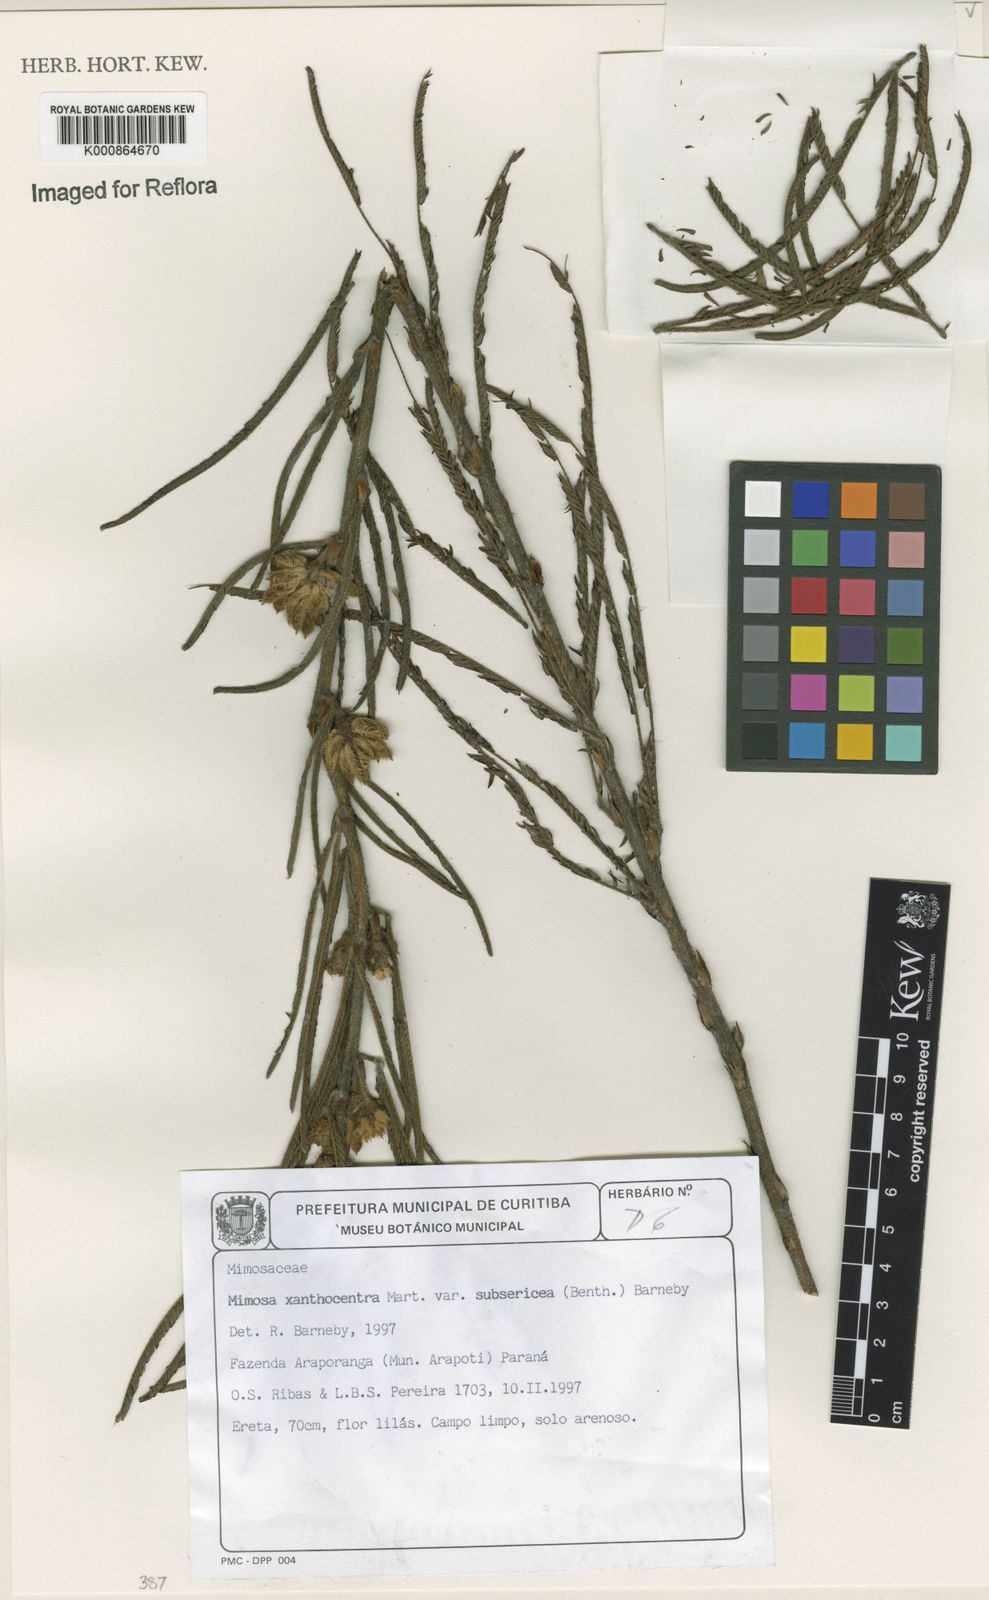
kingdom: Plantae
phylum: Tracheophyta
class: Magnoliopsida
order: Fabales
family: Fabaceae
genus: Mimosa
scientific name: Mimosa xanthocentra
